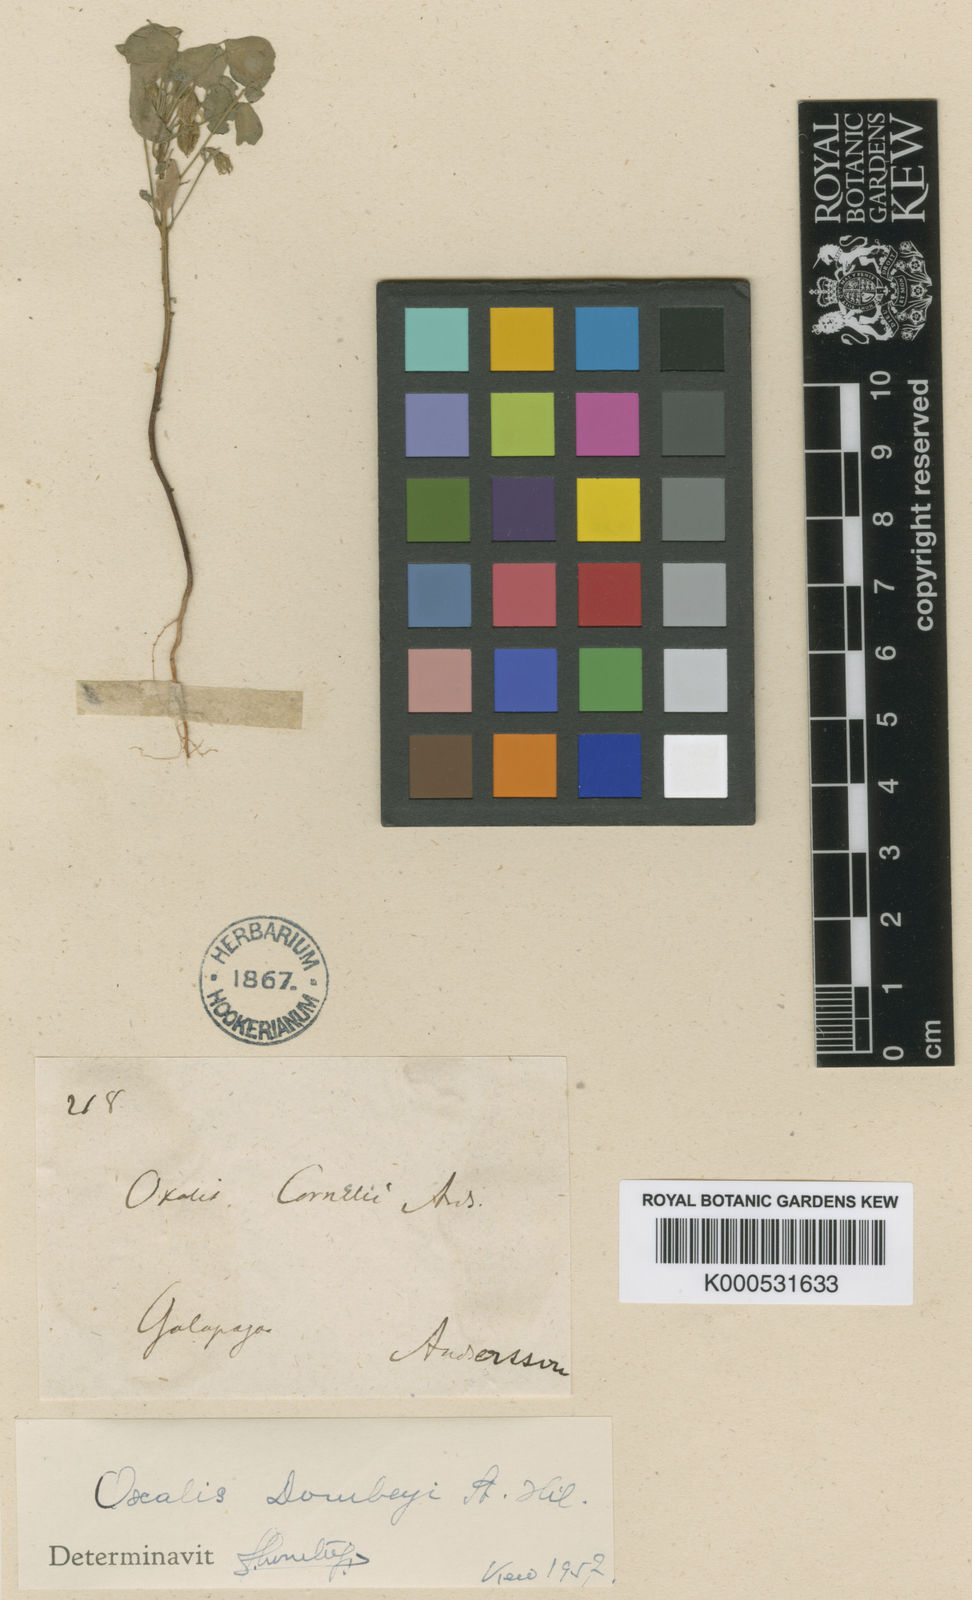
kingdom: Plantae
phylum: Tracheophyta
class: Magnoliopsida
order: Oxalidales
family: Oxalidaceae
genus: Oxalis
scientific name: Oxalis dombeyi
